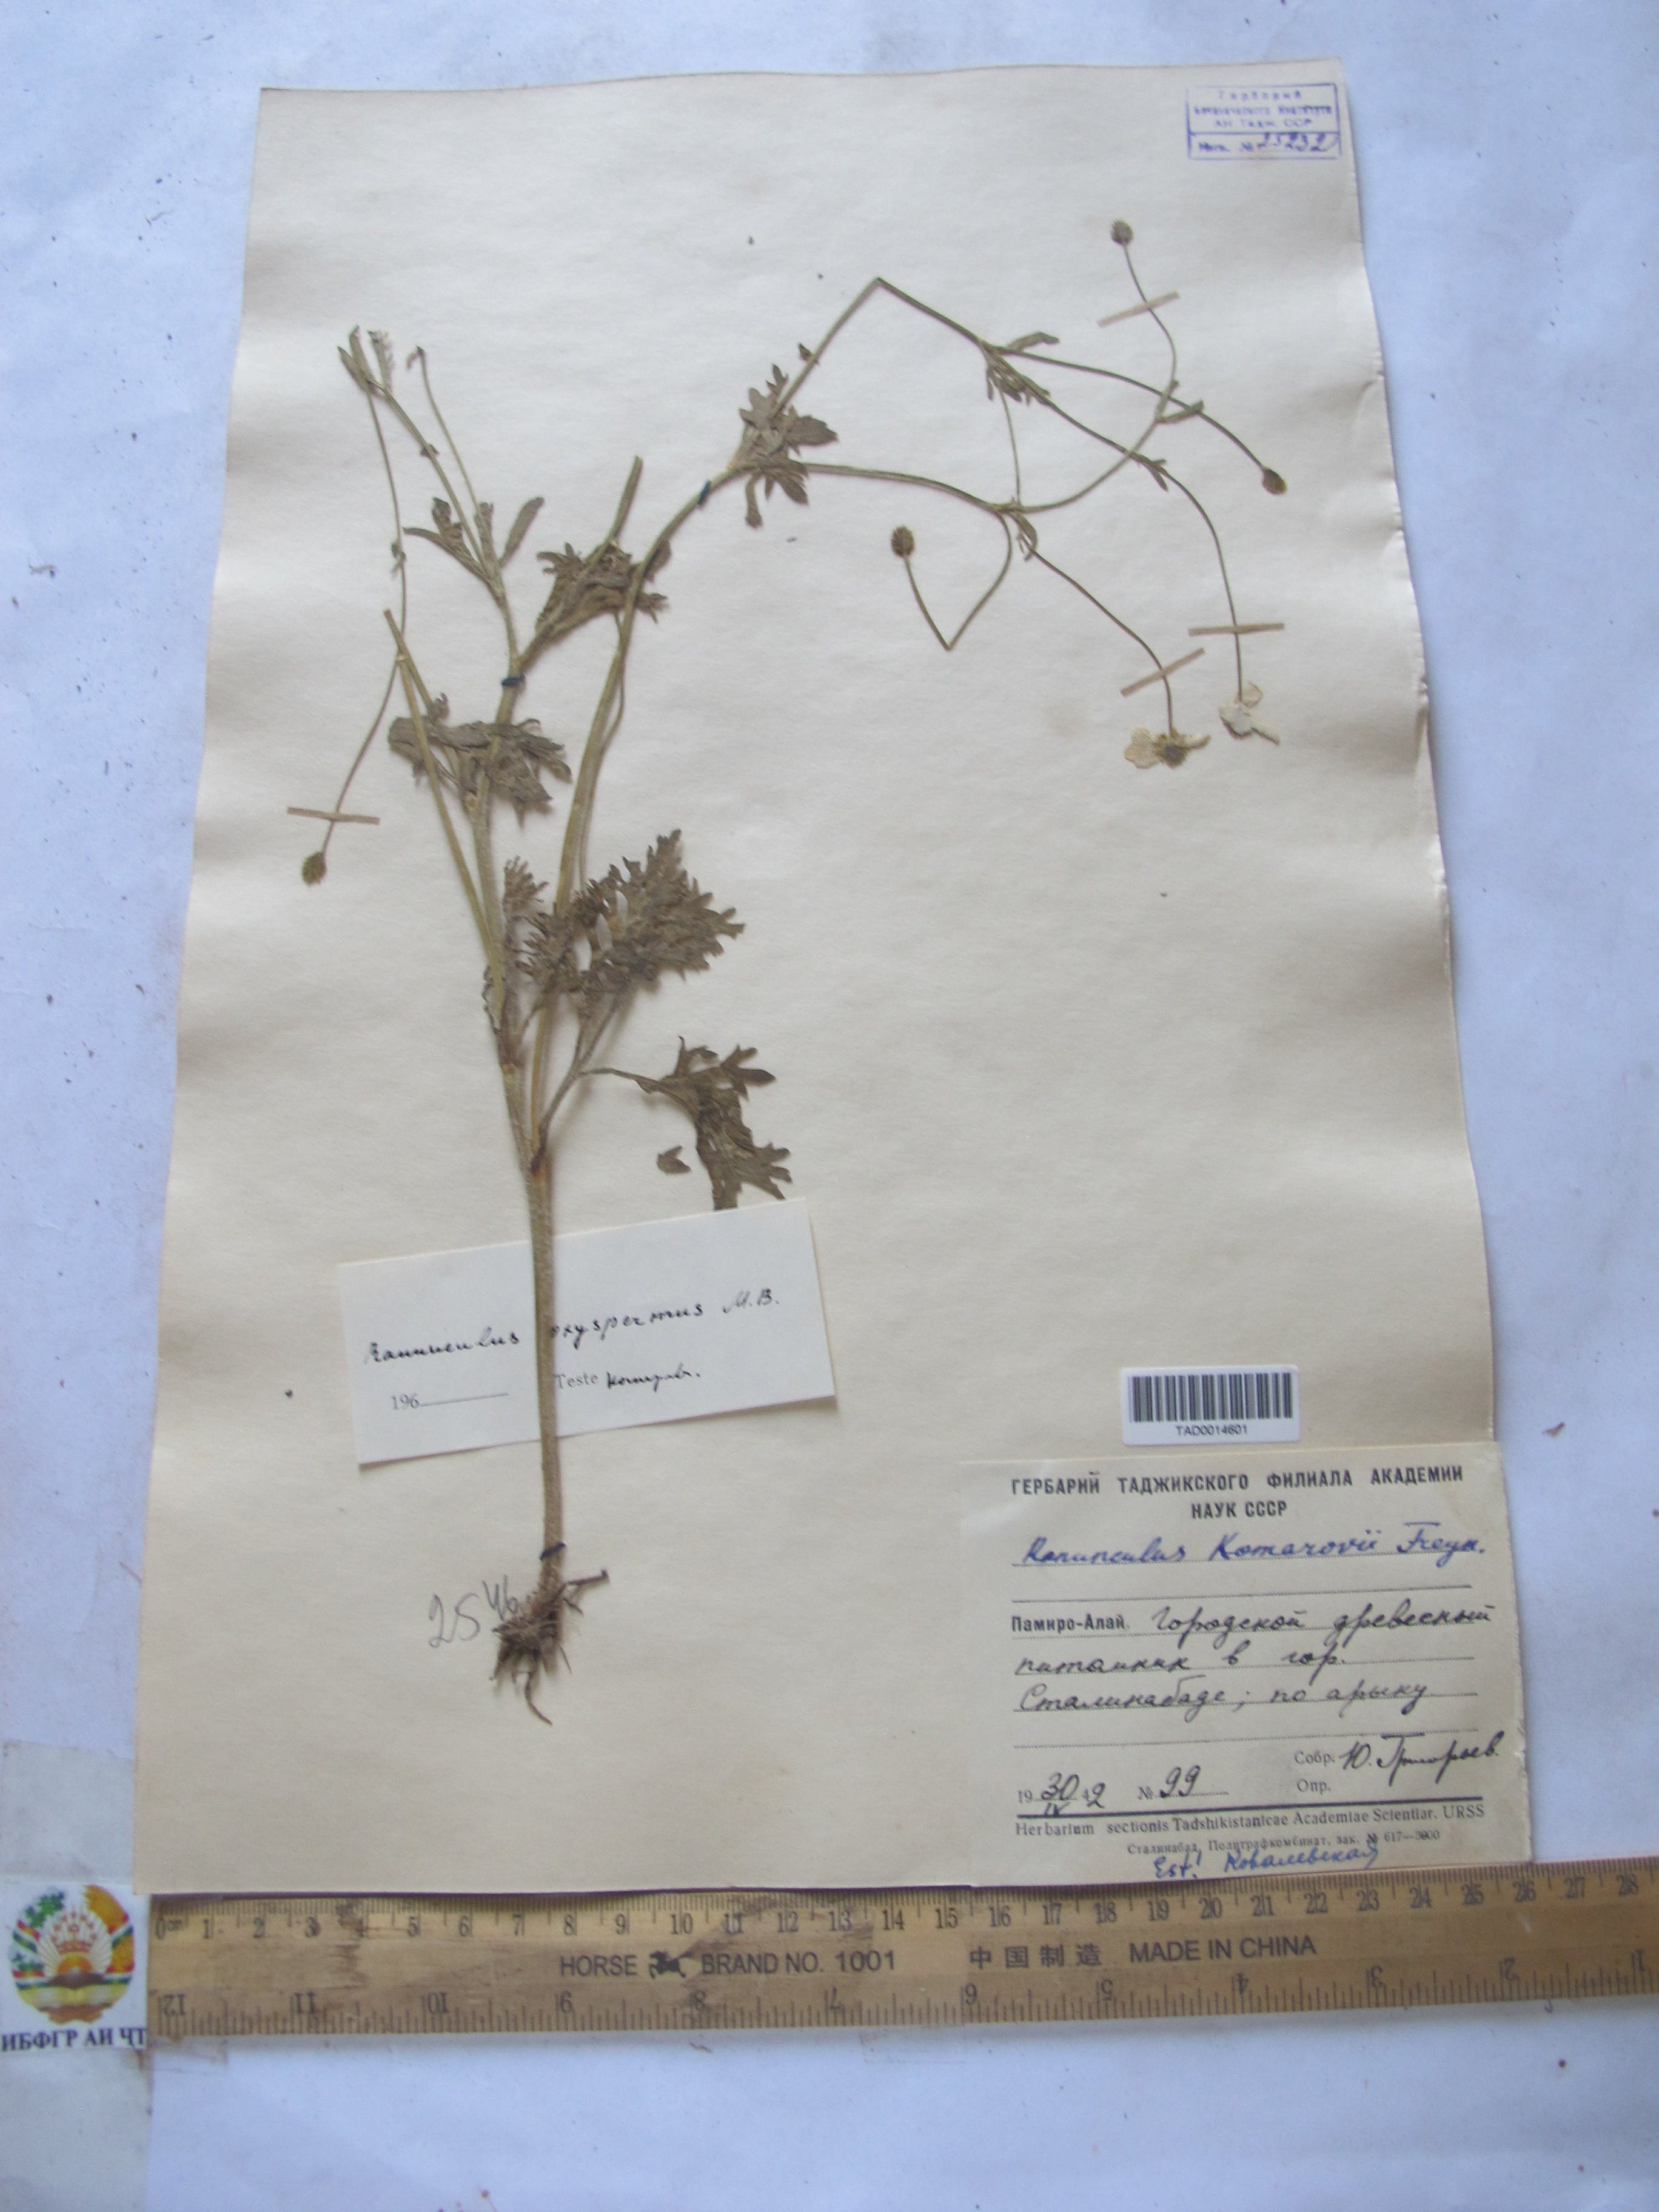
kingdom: Plantae
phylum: Tracheophyta
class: Magnoliopsida
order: Ranunculales
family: Ranunculaceae
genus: Ranunculus
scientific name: Ranunculus
